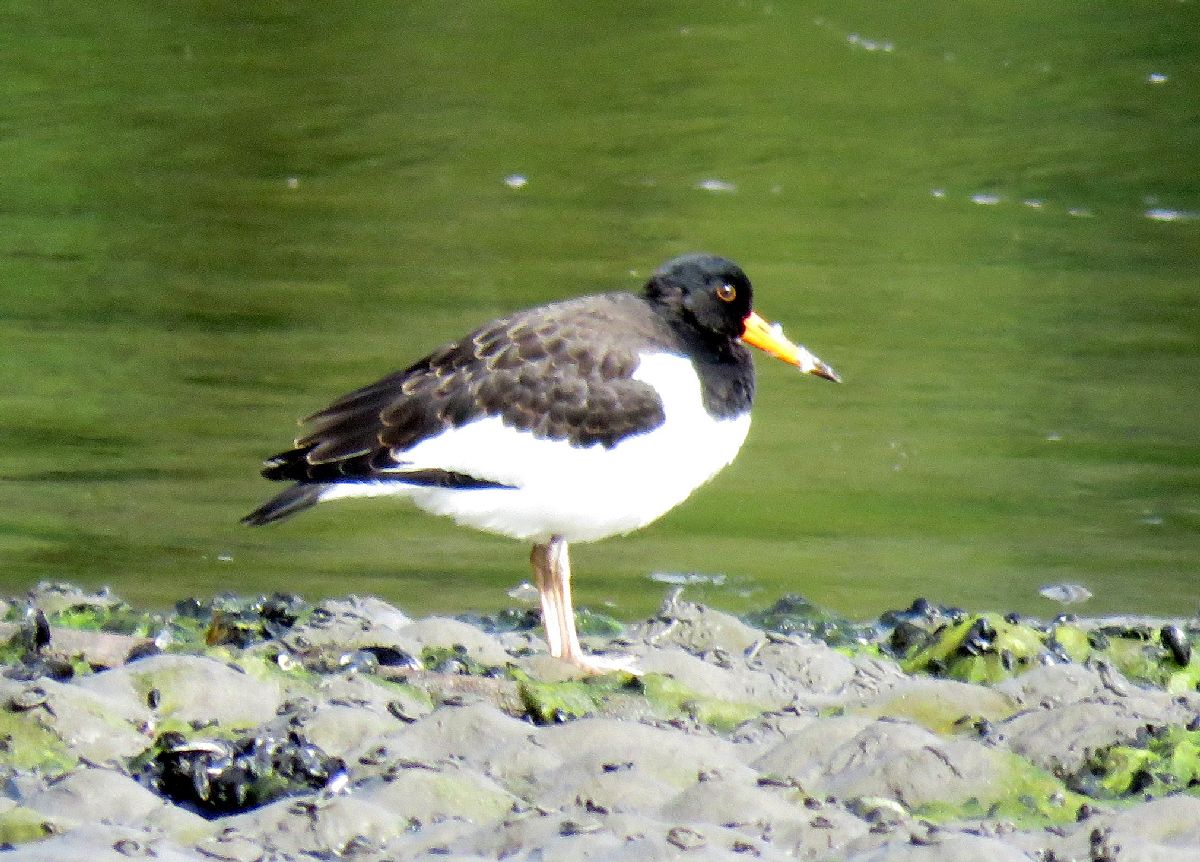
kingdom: Animalia
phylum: Chordata
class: Aves
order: Charadriiformes
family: Haematopodidae
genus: Haematopus
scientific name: Haematopus ostralegus
